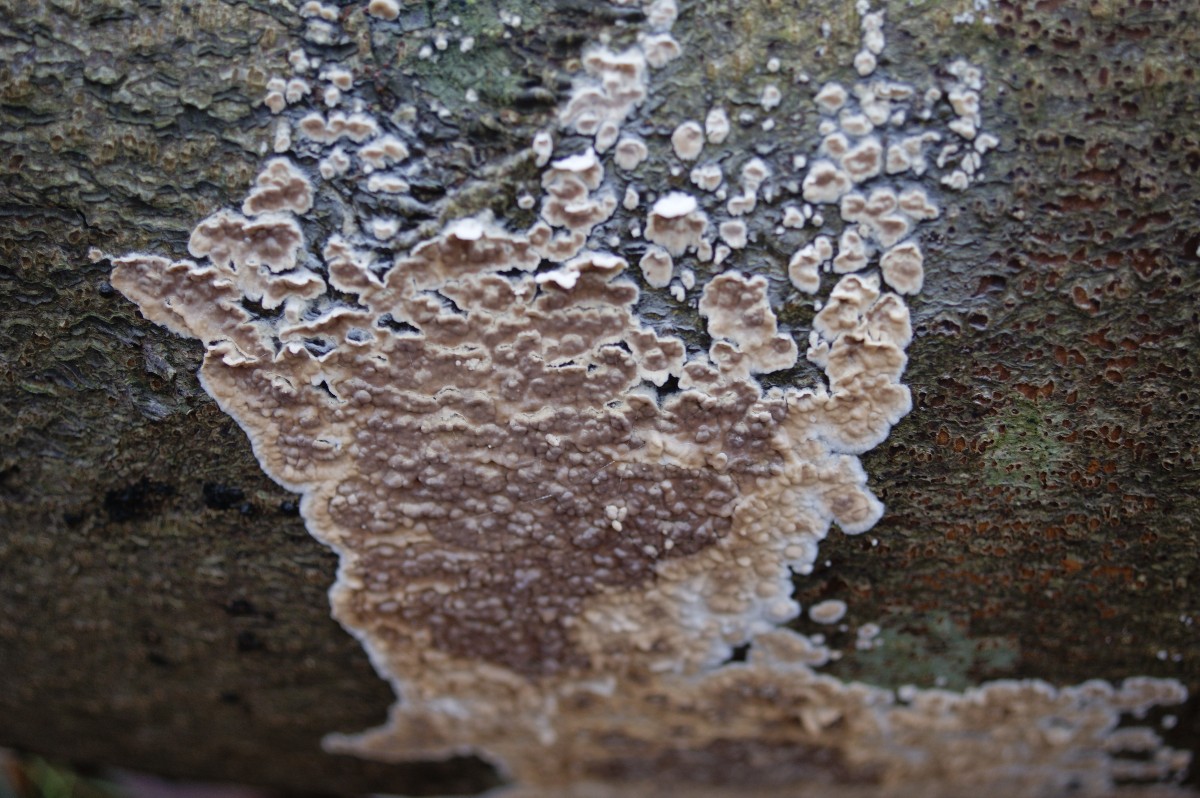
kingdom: Fungi
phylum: Basidiomycota
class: Agaricomycetes
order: Agaricales
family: Physalacriaceae
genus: Cylindrobasidium
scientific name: Cylindrobasidium evolvens
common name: sprækkehinde
